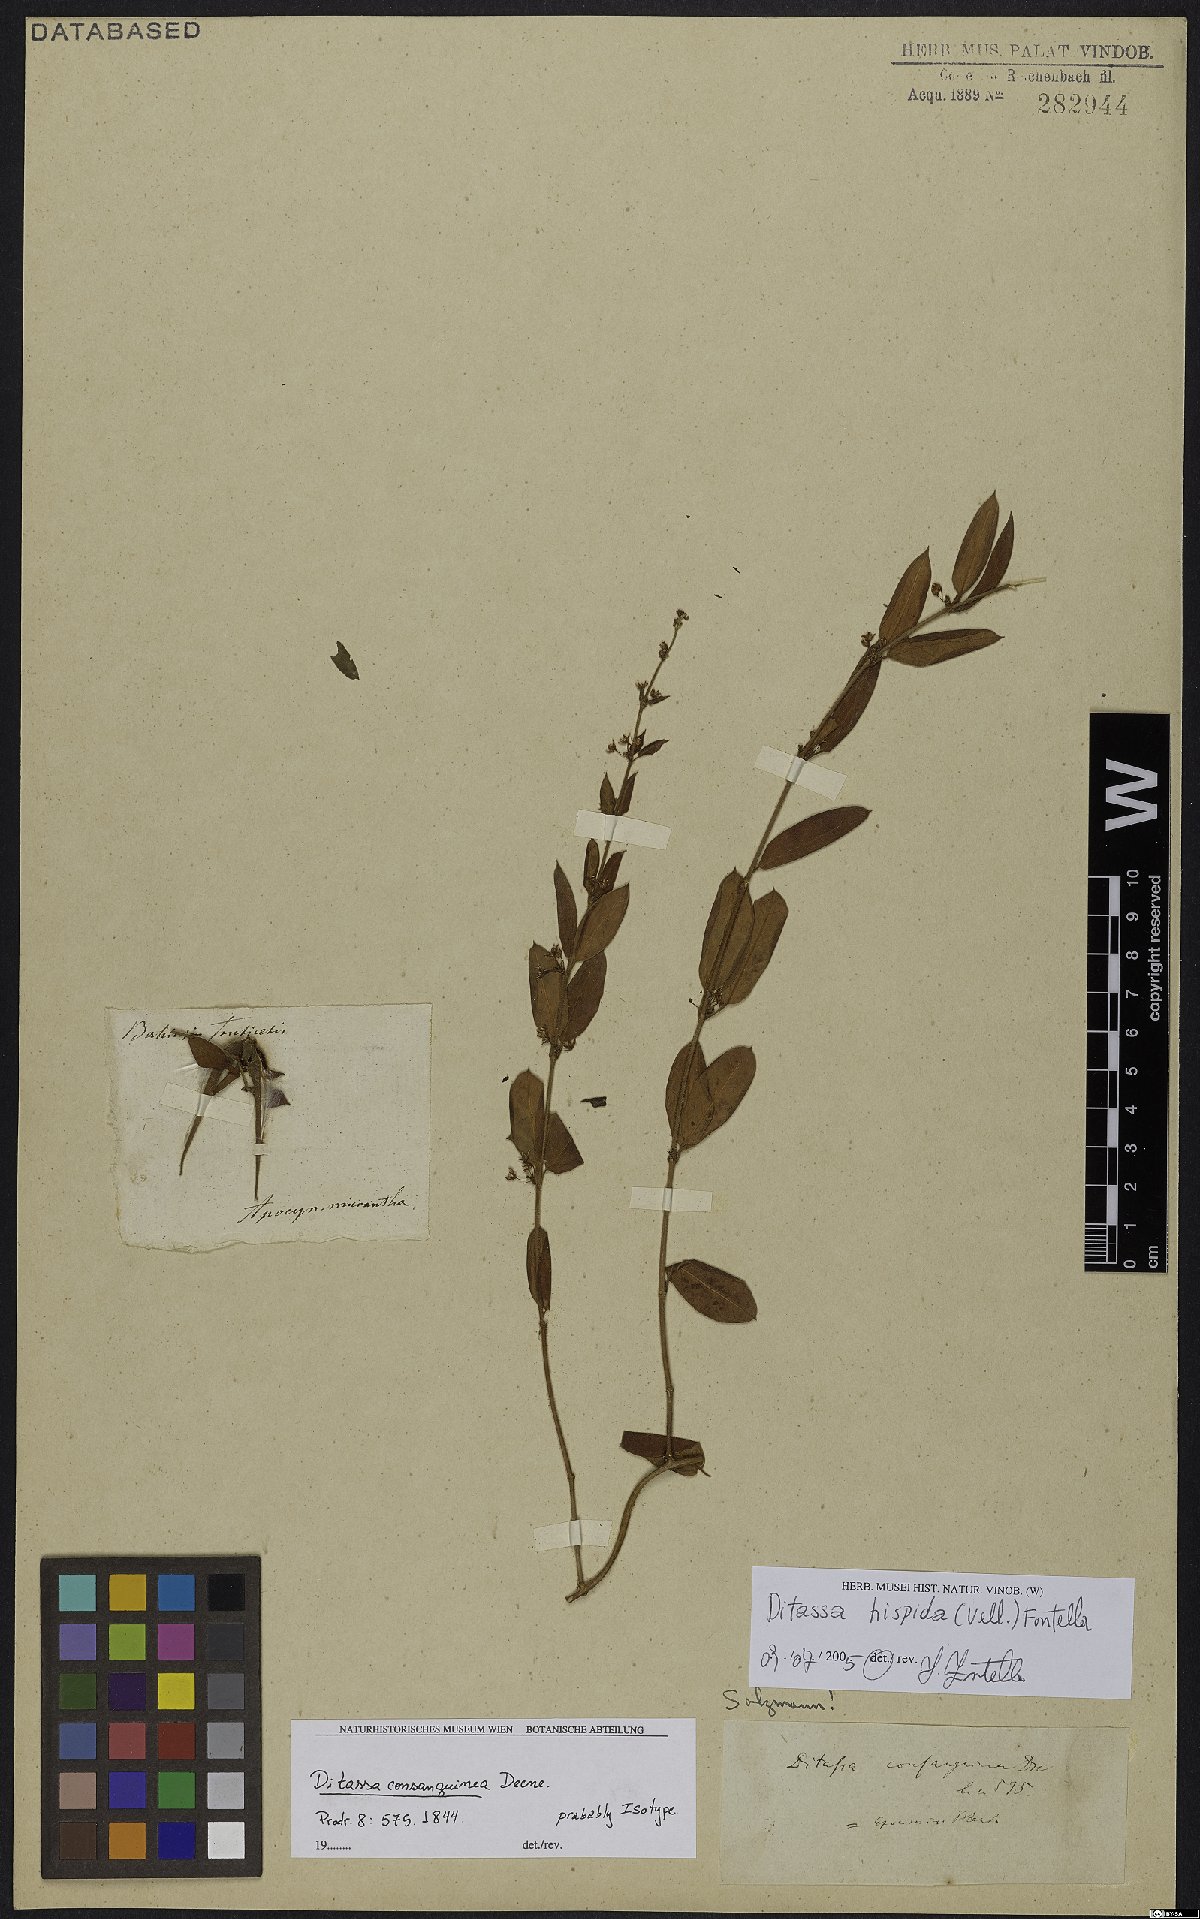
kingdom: Plantae
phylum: Tracheophyta
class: Magnoliopsida
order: Gentianales
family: Apocynaceae
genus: Ditassa
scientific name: Ditassa hispida
